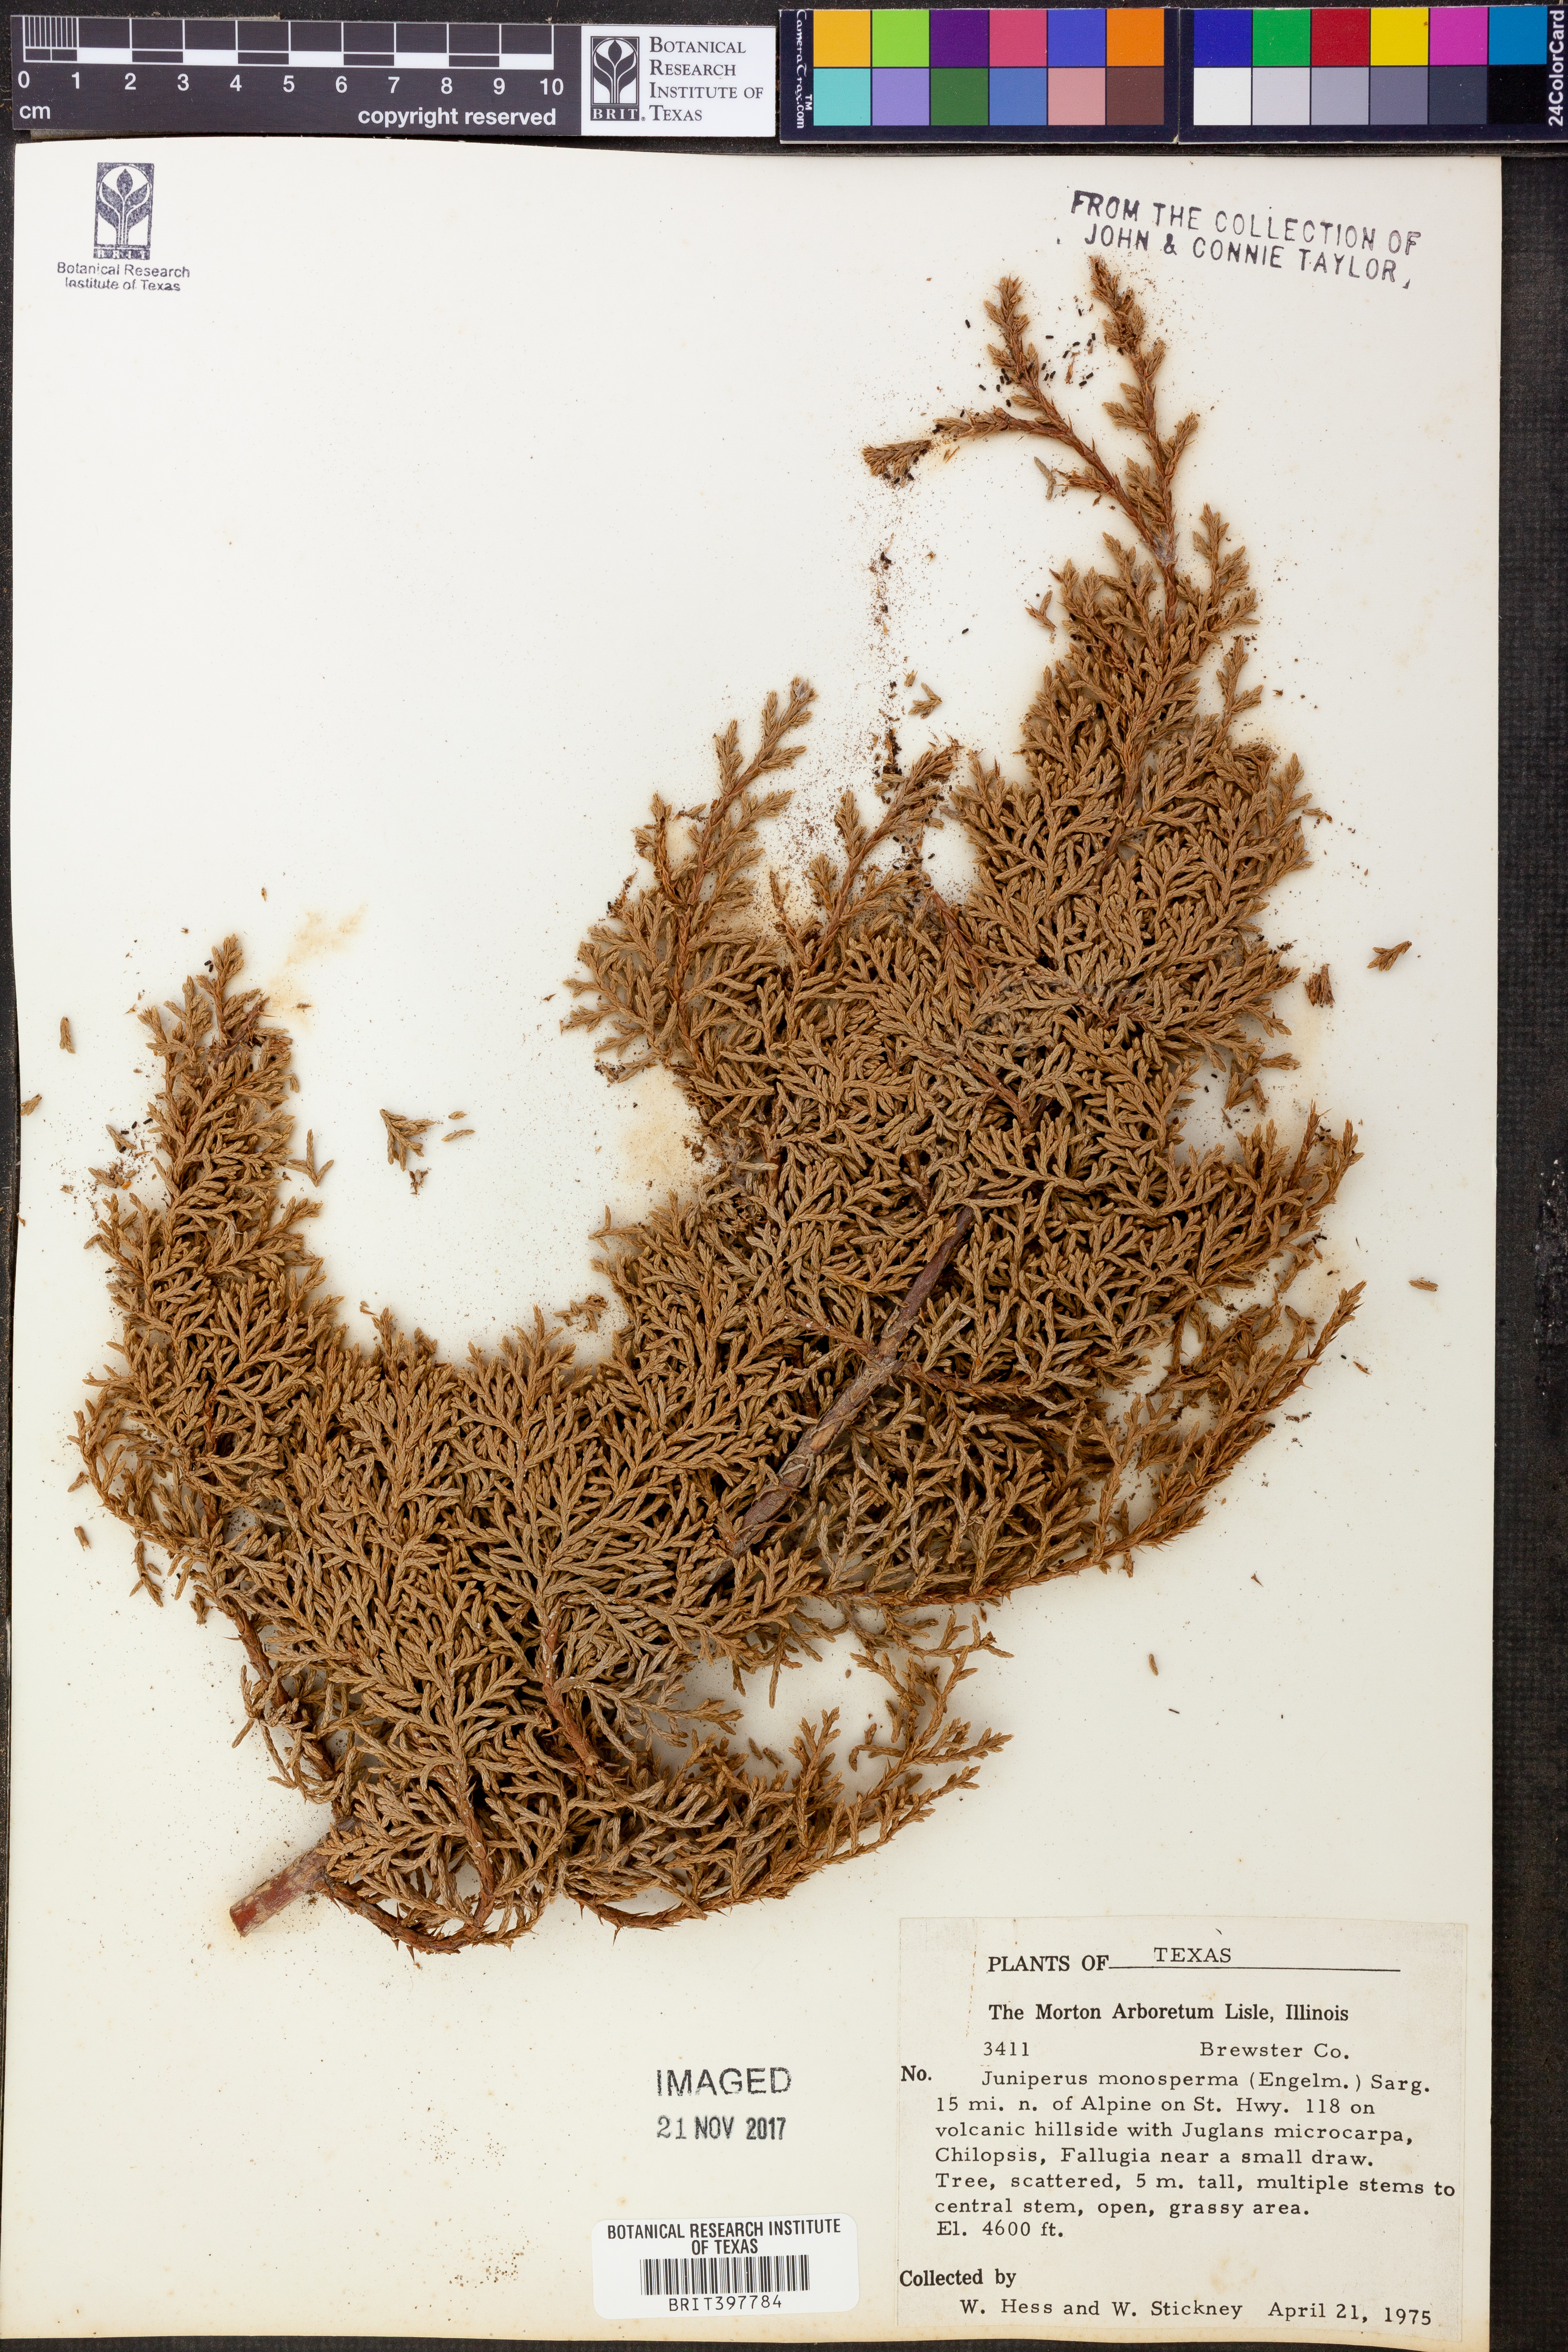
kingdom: Plantae
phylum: Tracheophyta
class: Pinopsida
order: Pinales
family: Cupressaceae
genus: Juniperus
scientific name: Juniperus monosperma
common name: One-seed juniper
